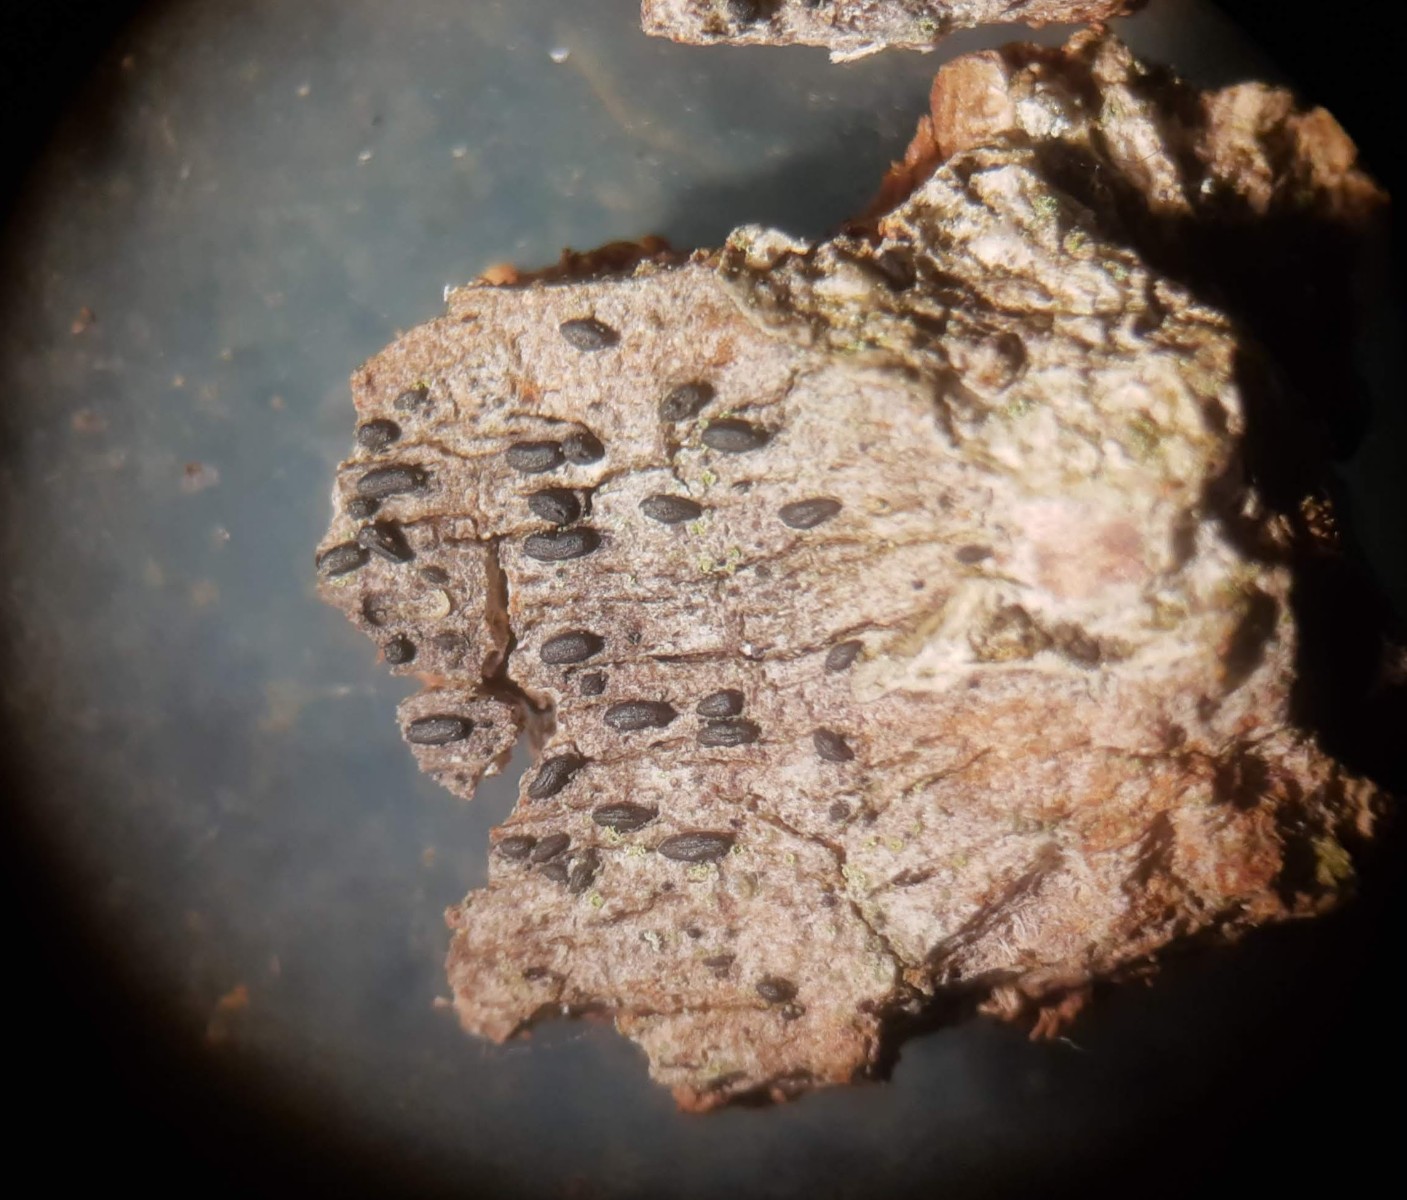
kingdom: Fungi
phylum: Ascomycota
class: Dothideomycetes
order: Hysteriales
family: Hysteriaceae
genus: Hysterium
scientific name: Hysterium acuminatum
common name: almindelig kulmund
